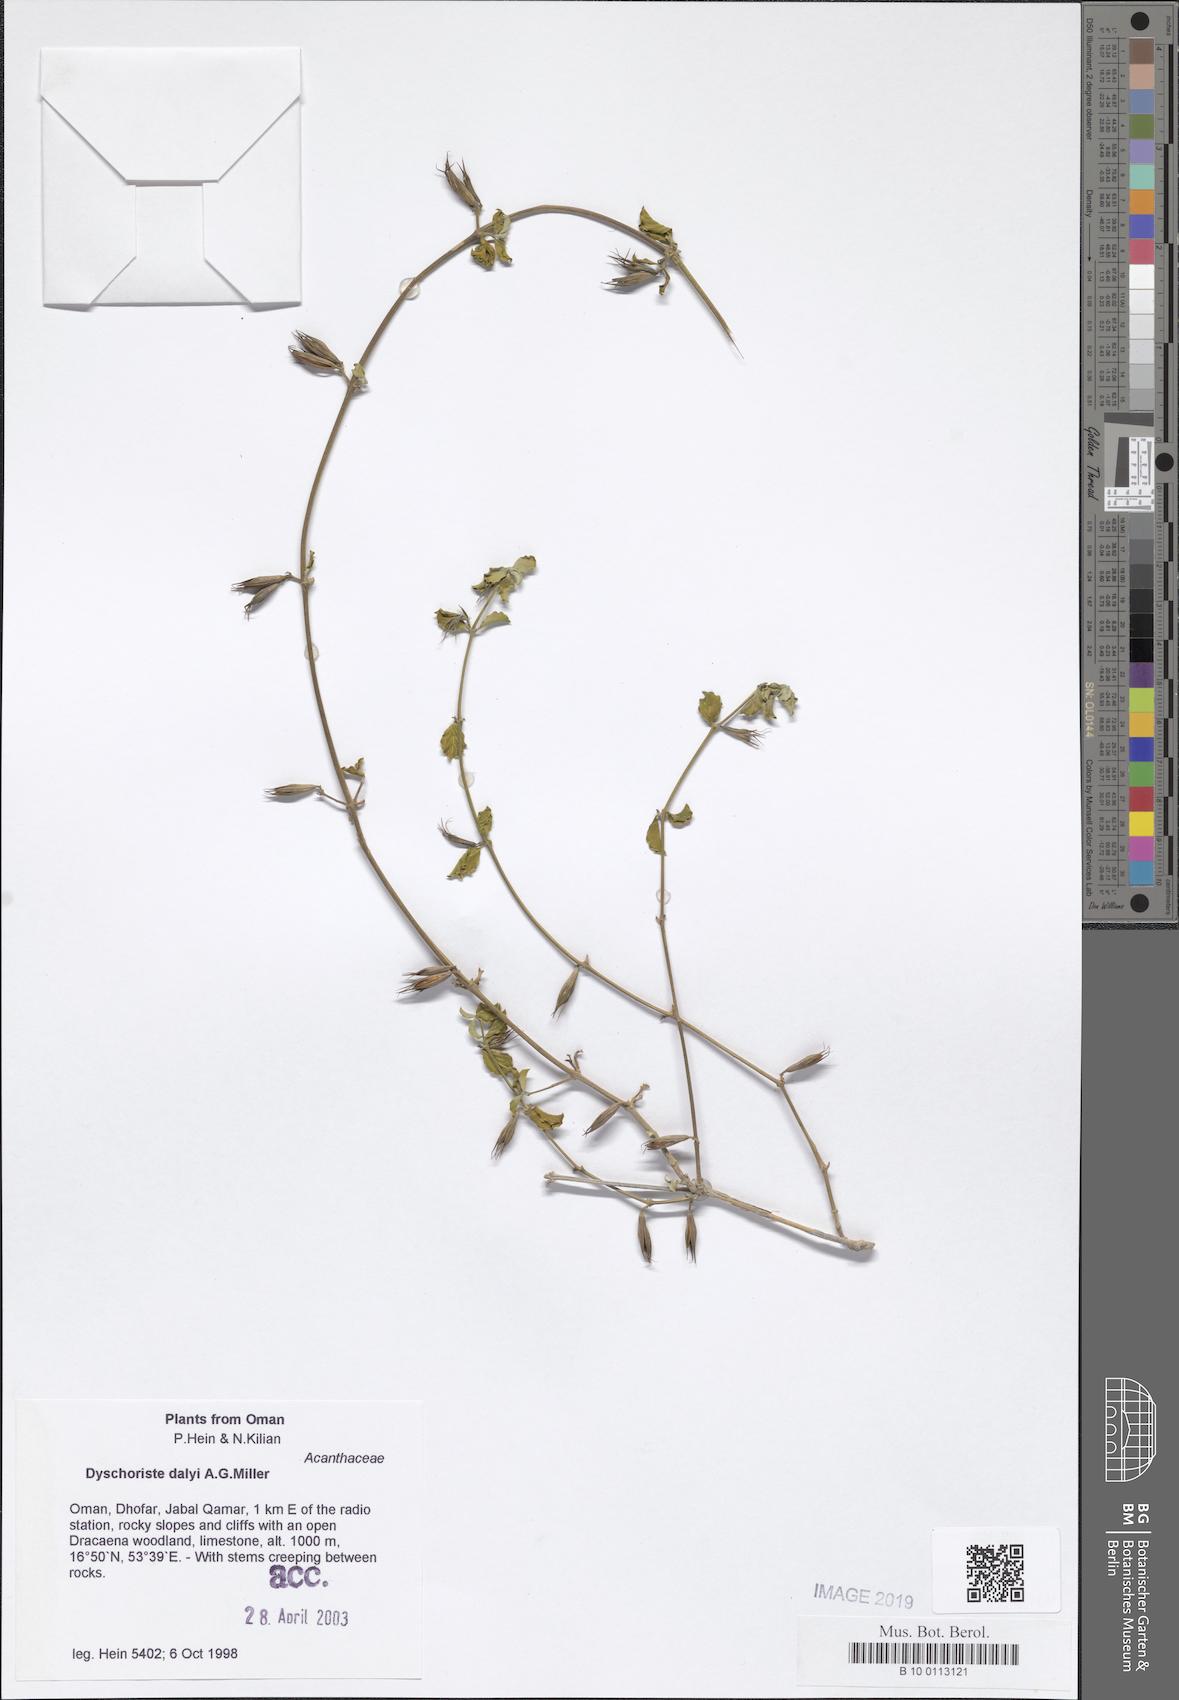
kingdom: Plantae
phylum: Tracheophyta
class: Magnoliopsida
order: Lamiales
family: Acanthaceae
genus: Dyschoriste
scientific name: Dyschoriste dalyi
